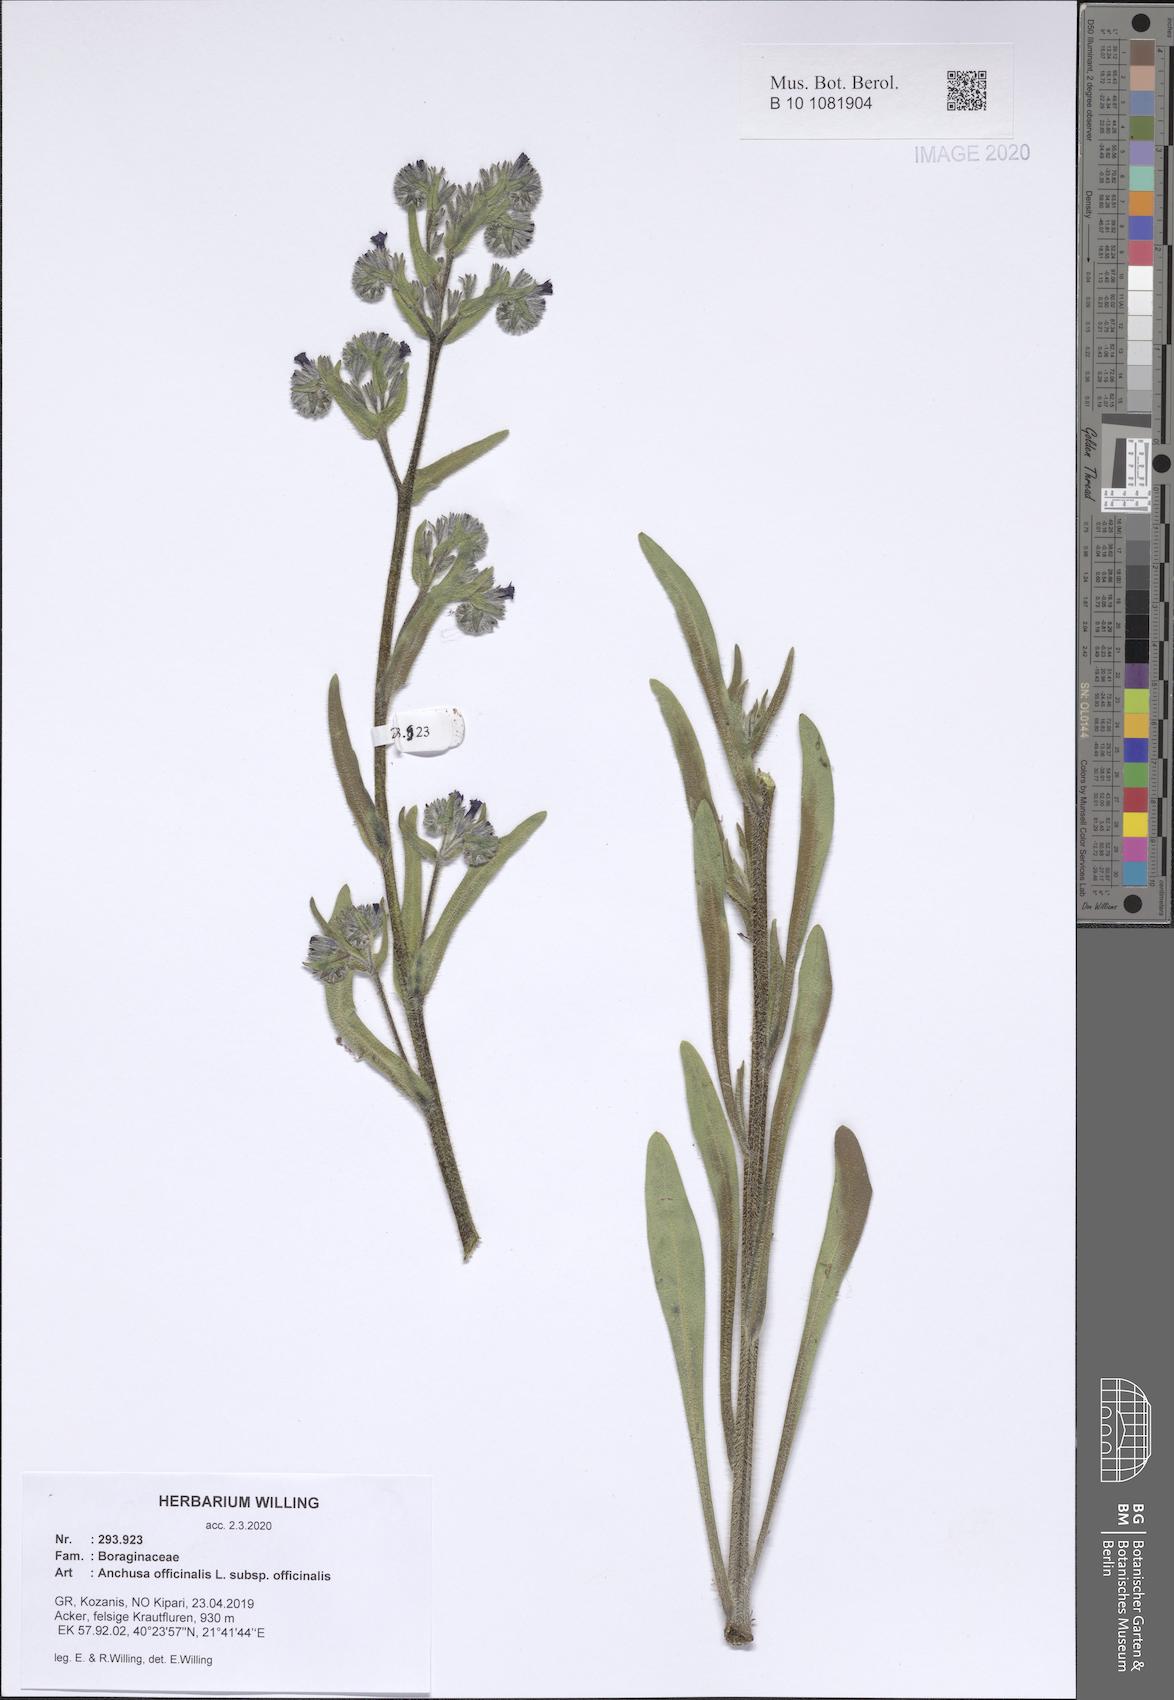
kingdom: Plantae
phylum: Tracheophyta
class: Magnoliopsida
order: Boraginales
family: Boraginaceae
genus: Anchusa
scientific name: Anchusa officinalis
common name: Alkanet
